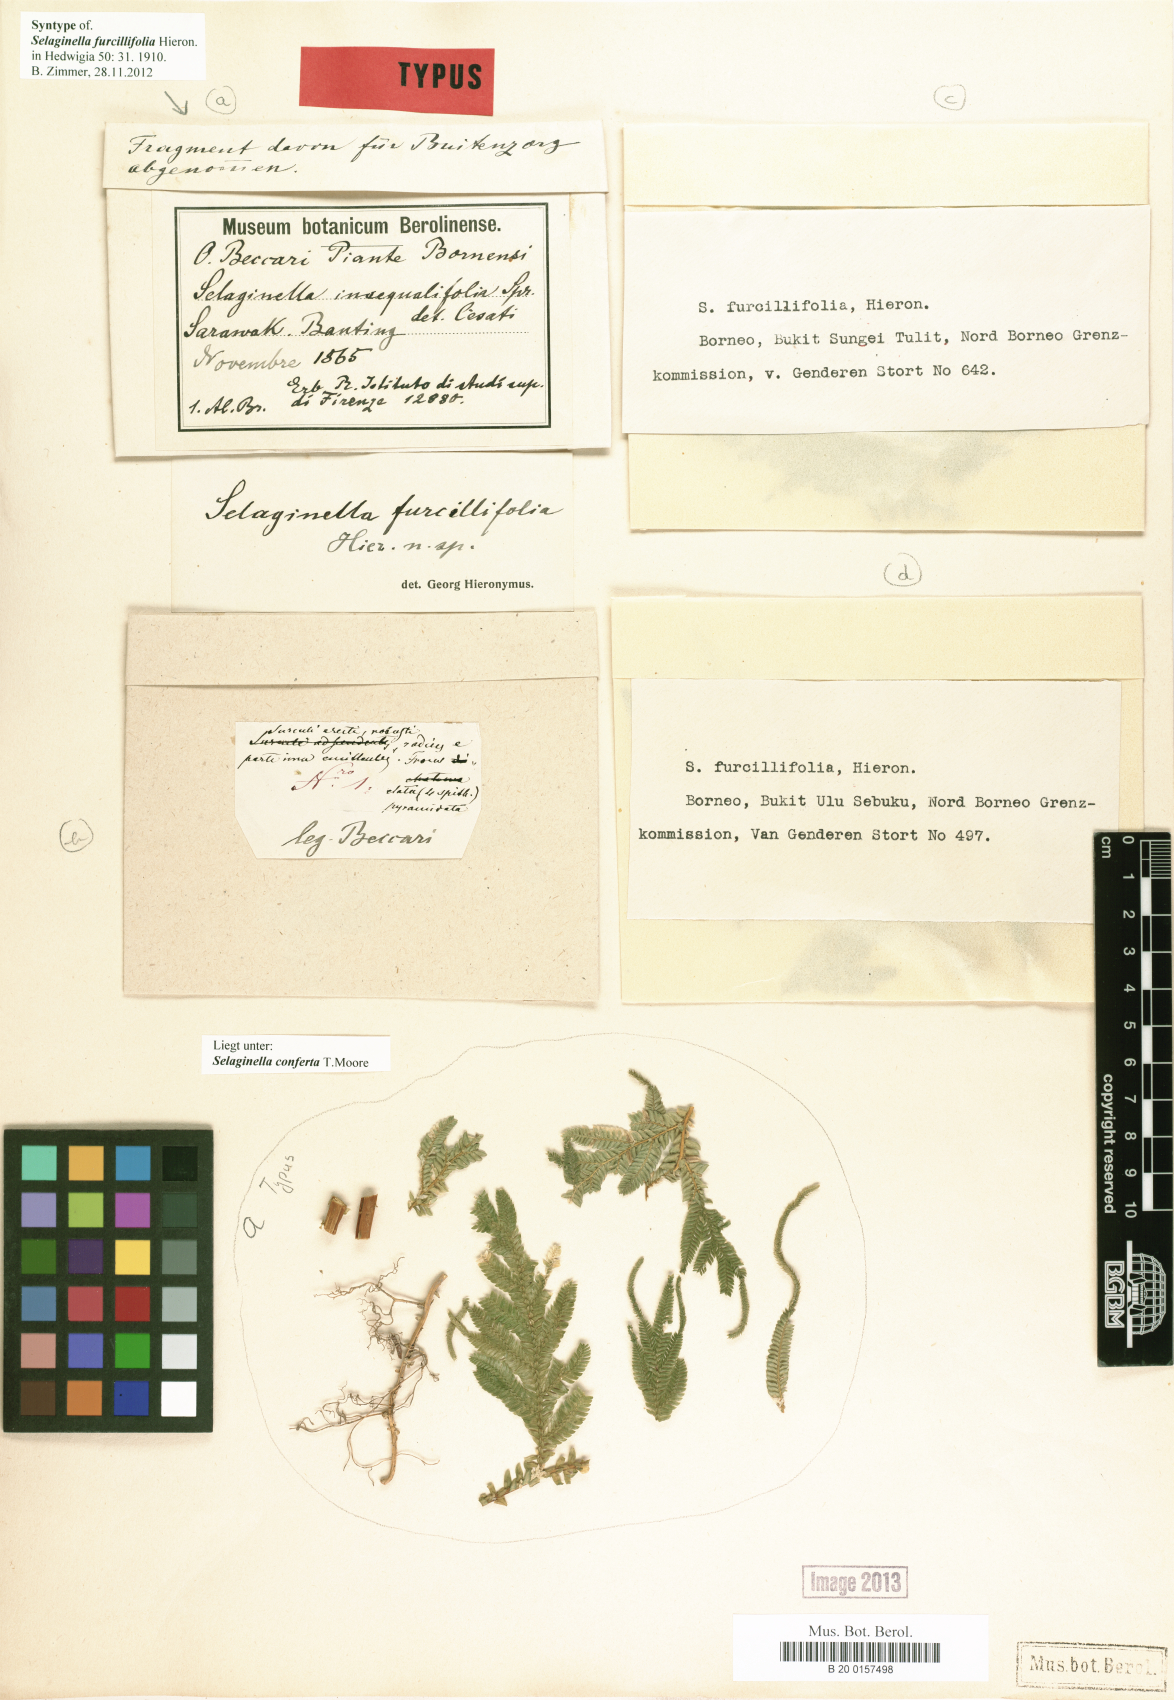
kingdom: Plantae
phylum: Tracheophyta
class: Lycopodiopsida
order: Selaginellales
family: Selaginellaceae
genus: Selaginella
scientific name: Selaginella conferta
